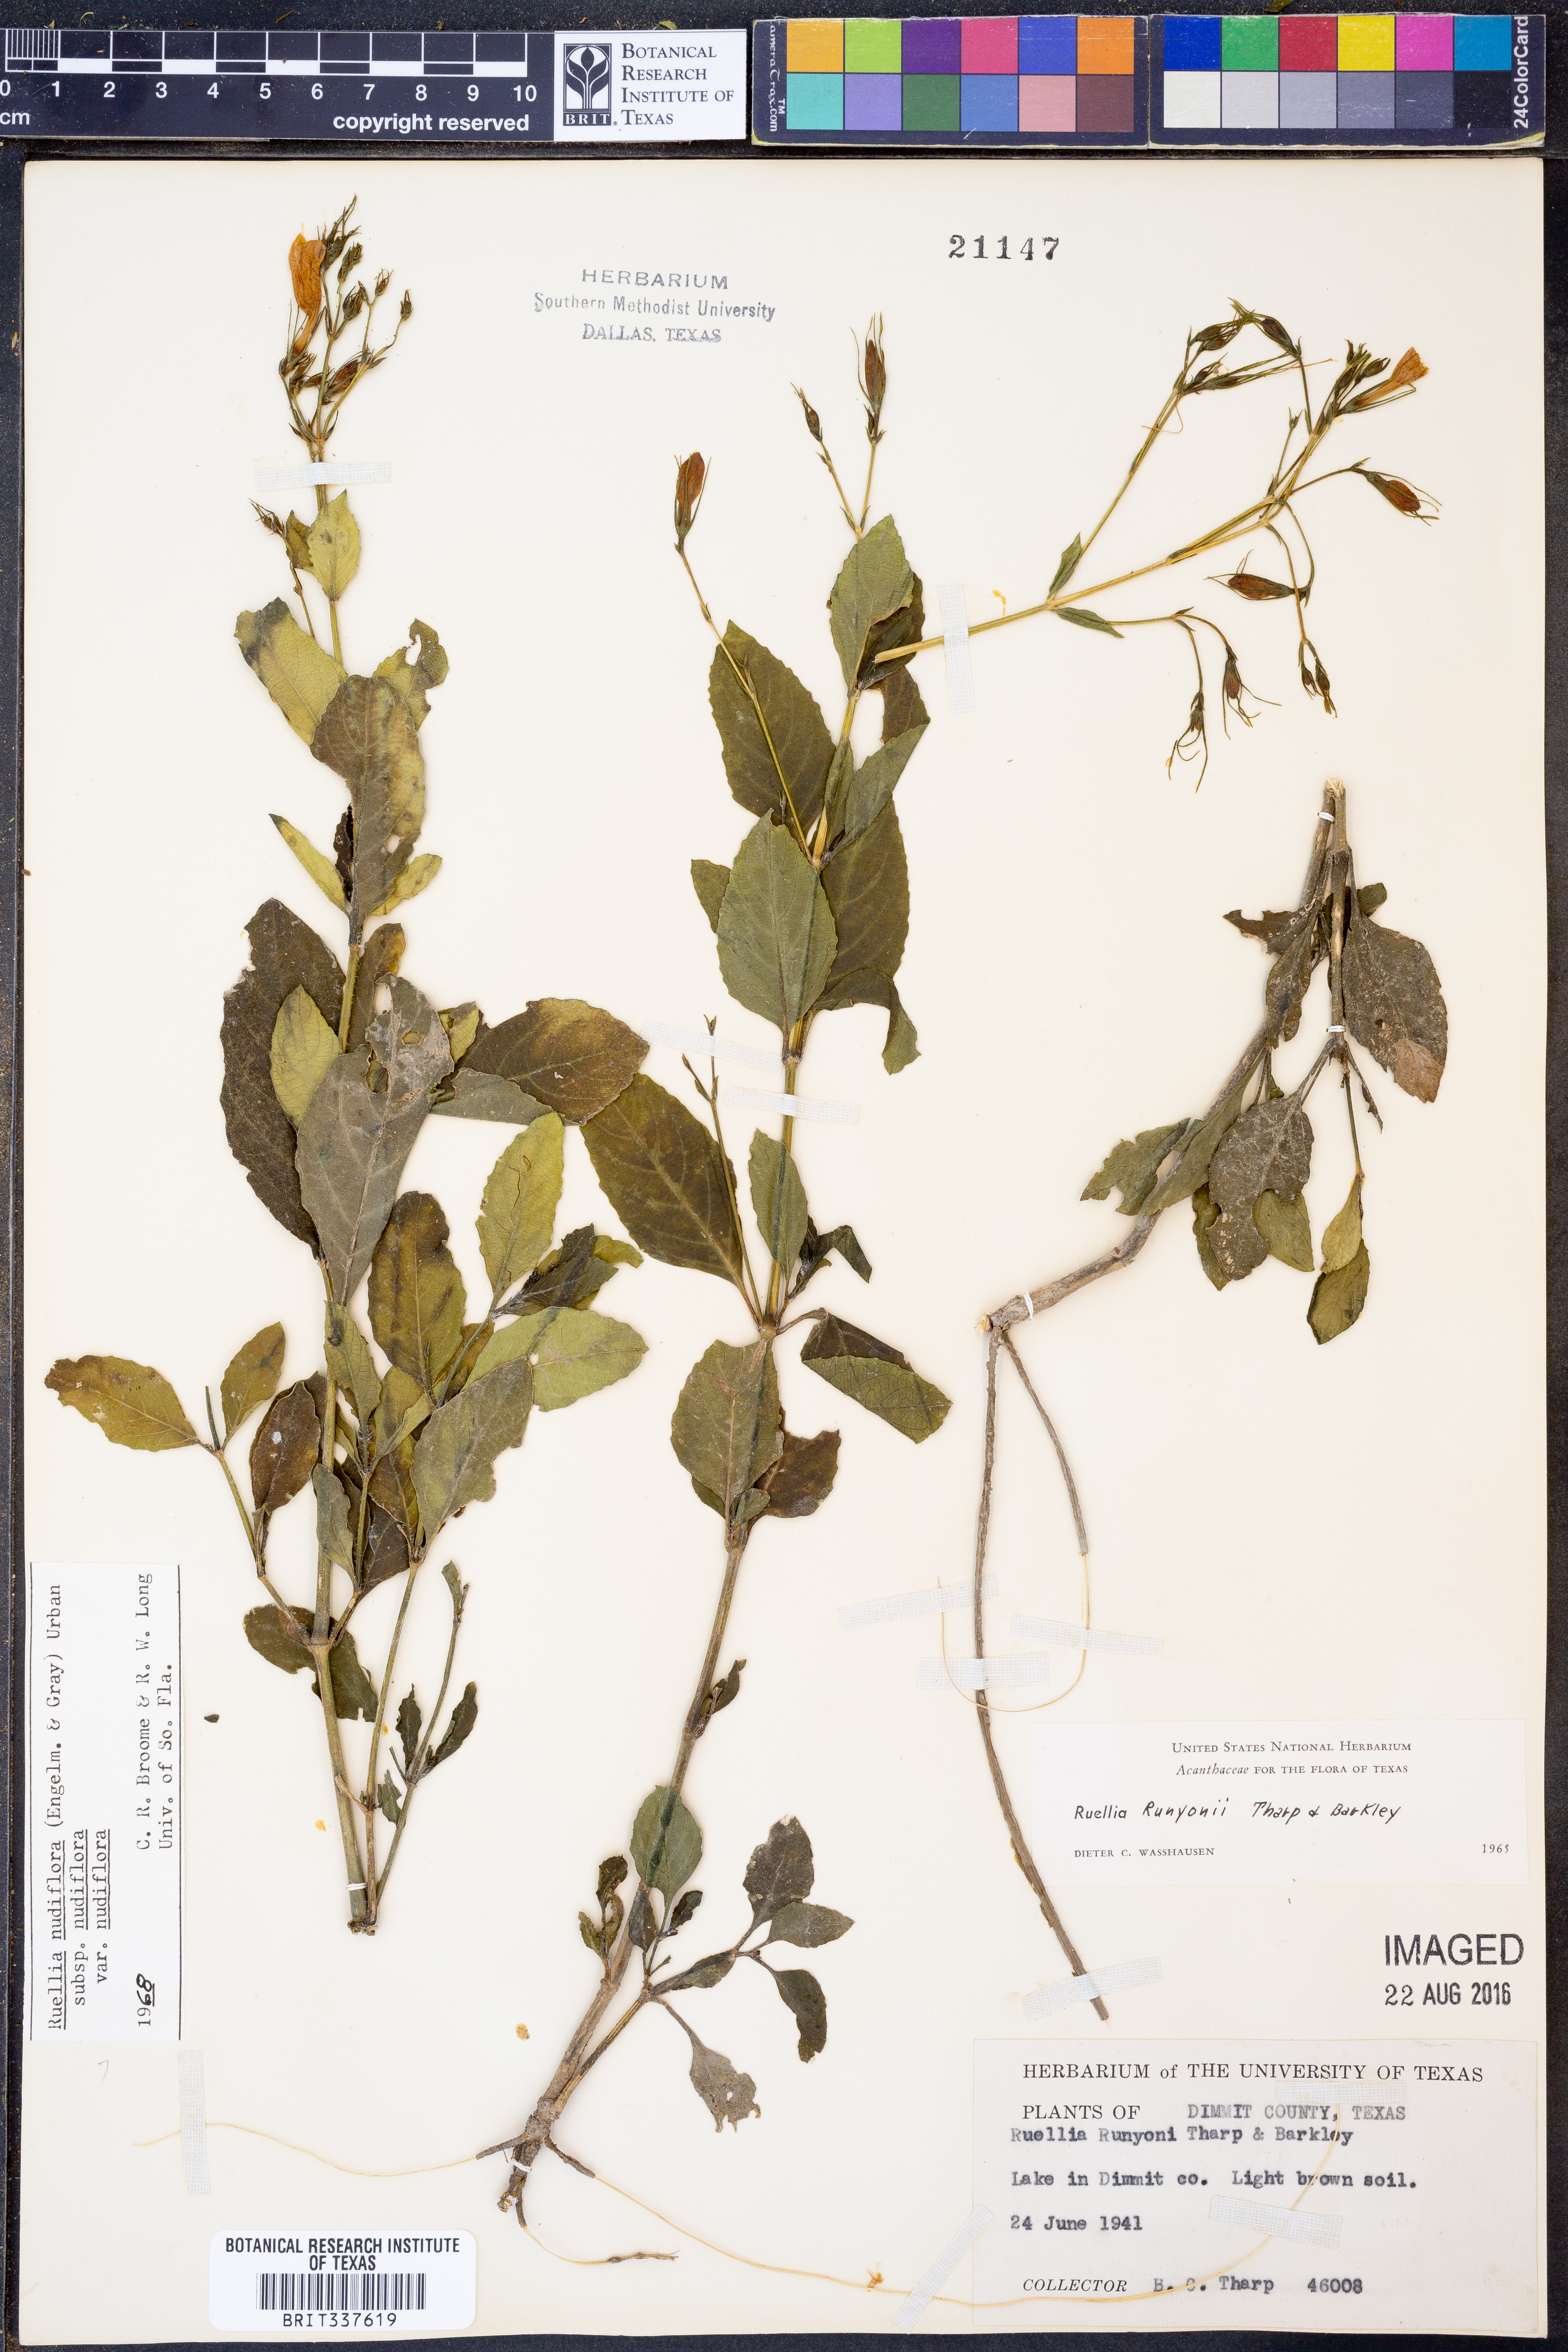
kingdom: Plantae
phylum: Tracheophyta
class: Magnoliopsida
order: Lamiales
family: Acanthaceae
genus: Ruellia
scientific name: Ruellia ciliatiflora
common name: Hairyflower wild petunia
